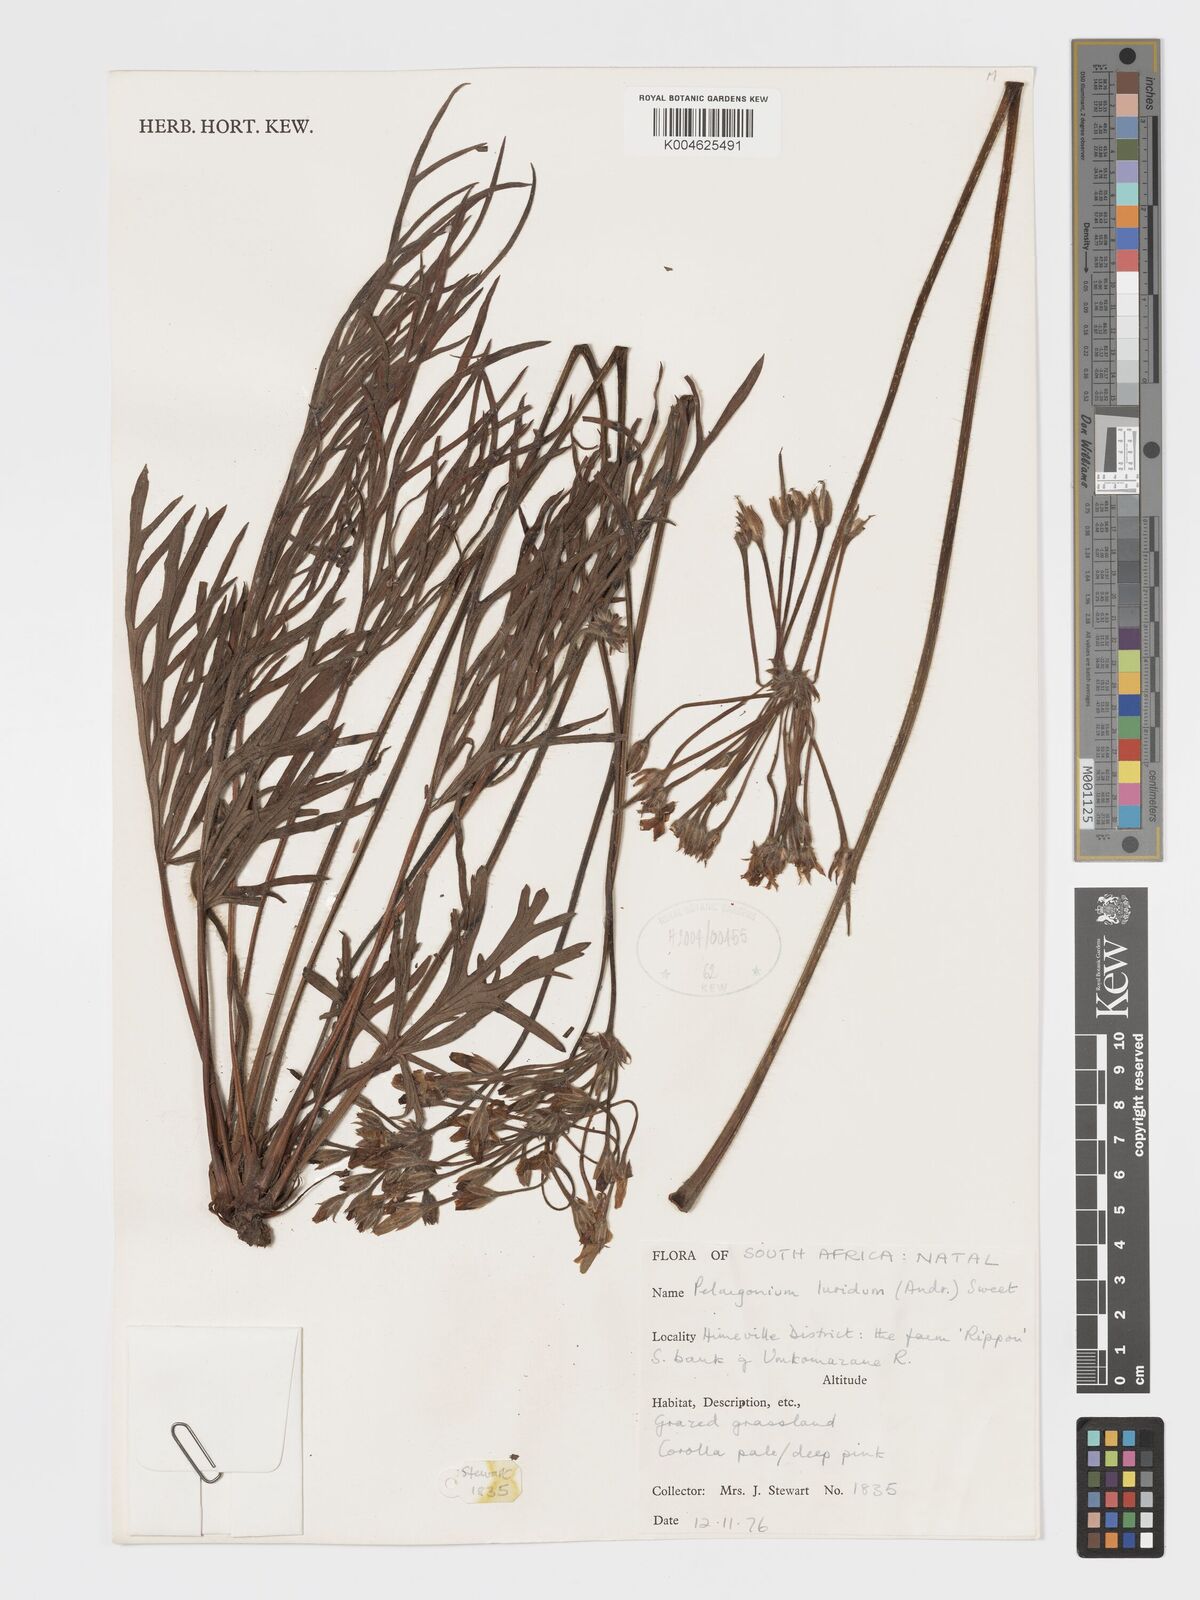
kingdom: Plantae
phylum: Tracheophyta
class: Magnoliopsida
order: Geraniales
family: Geraniaceae
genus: Pelargonium
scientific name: Pelargonium luridum
